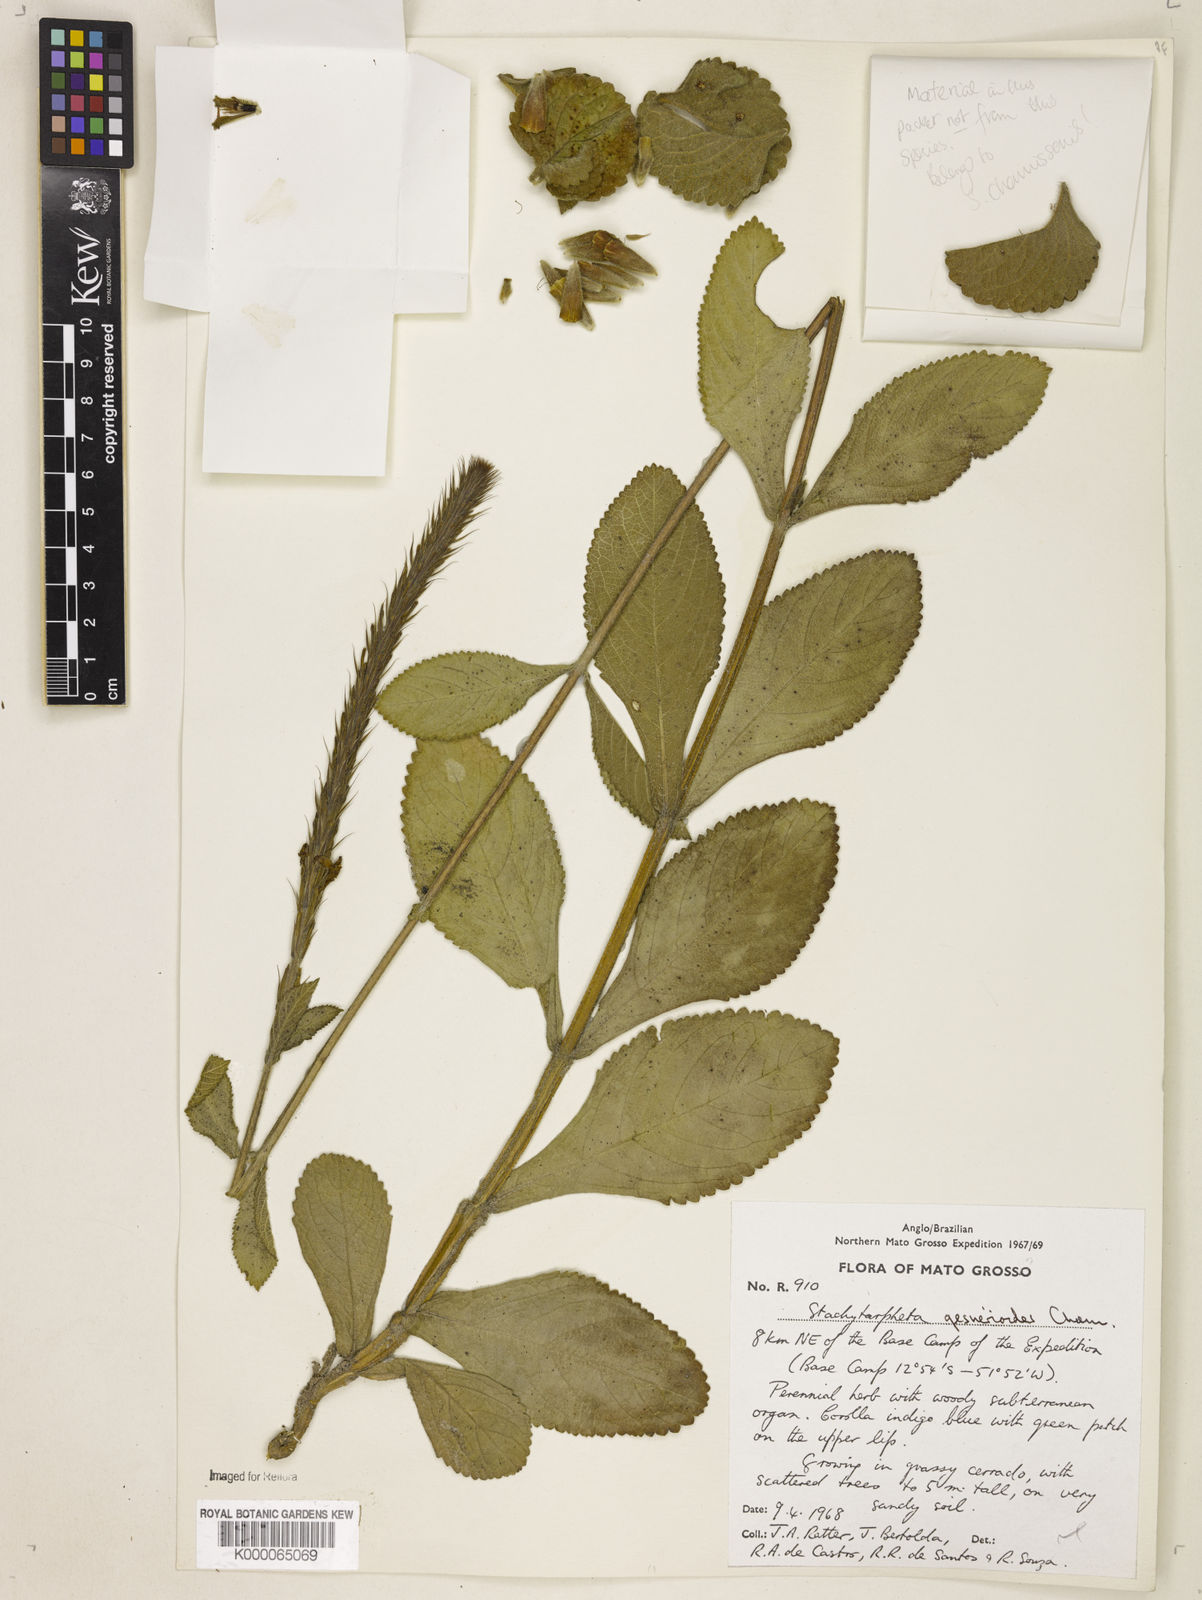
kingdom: Plantae
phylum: Tracheophyta
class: Magnoliopsida
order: Lamiales
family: Verbenaceae
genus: Stachytarpheta
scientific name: Stachytarpheta gesnerioides
